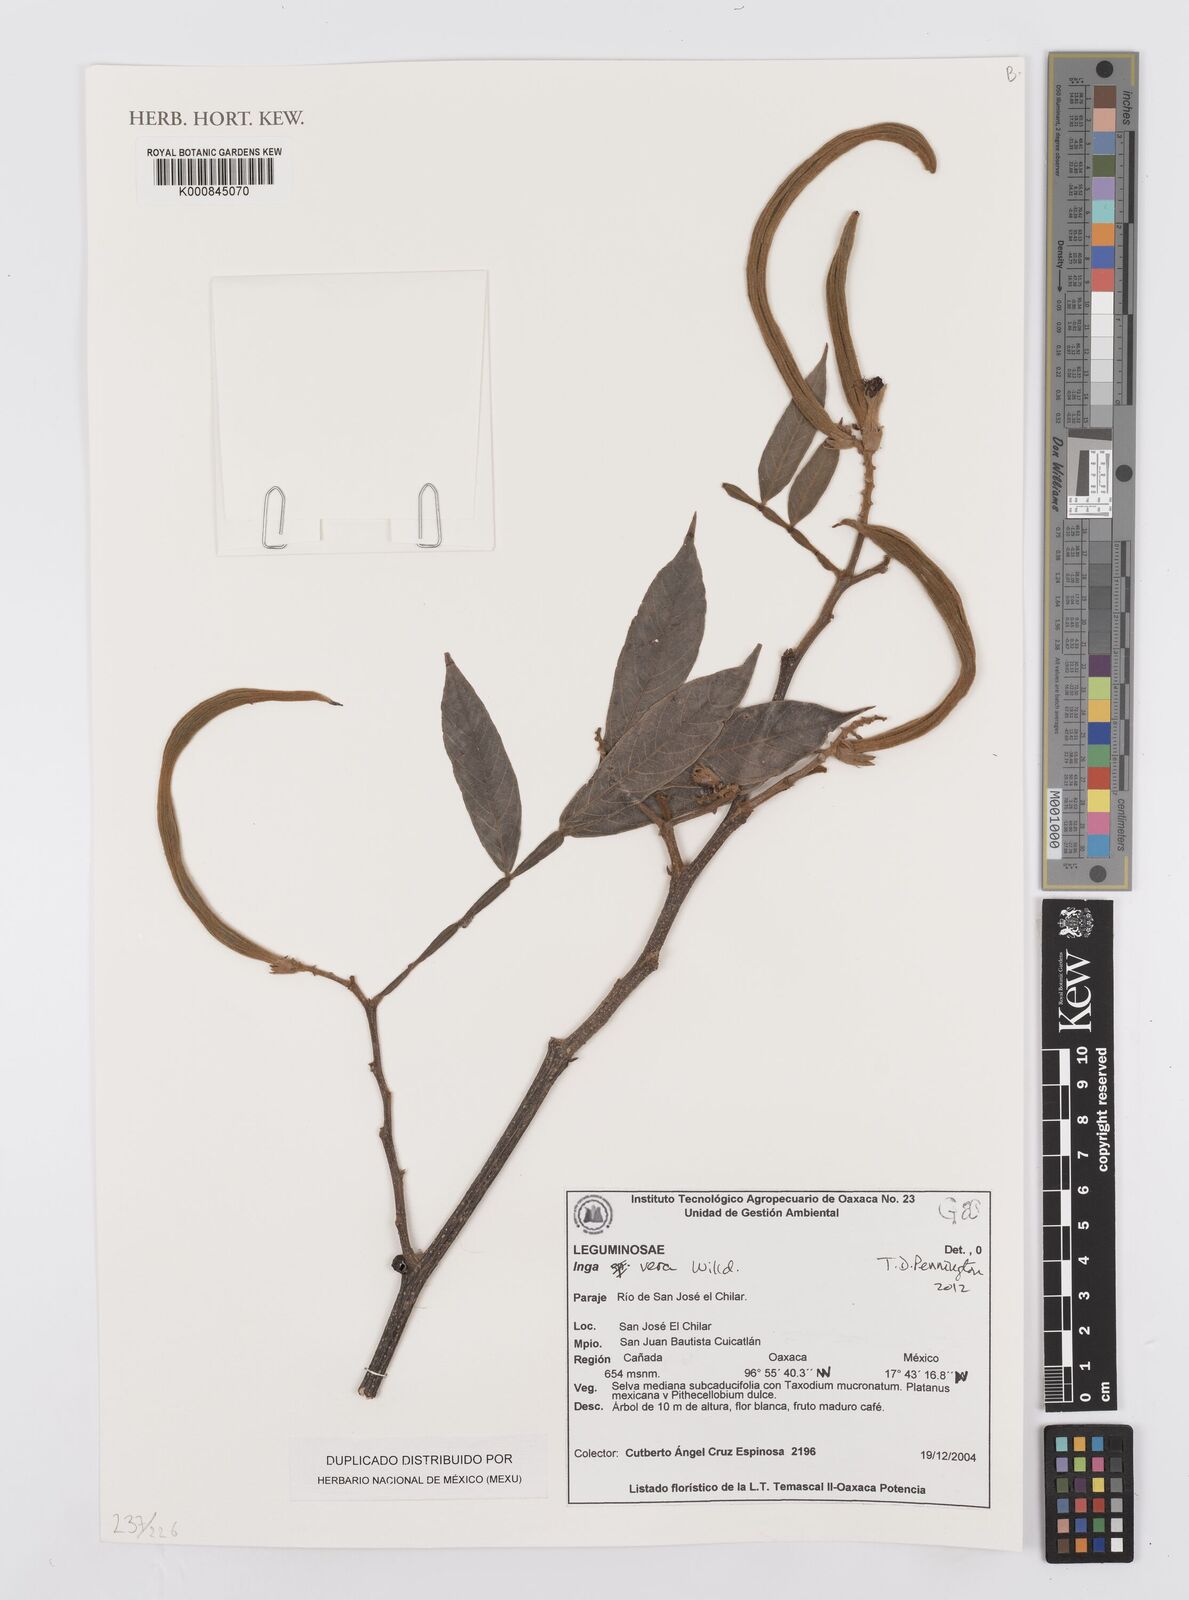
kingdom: Plantae
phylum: Tracheophyta
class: Magnoliopsida
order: Fabales
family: Fabaceae
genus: Inga
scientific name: Inga vera
